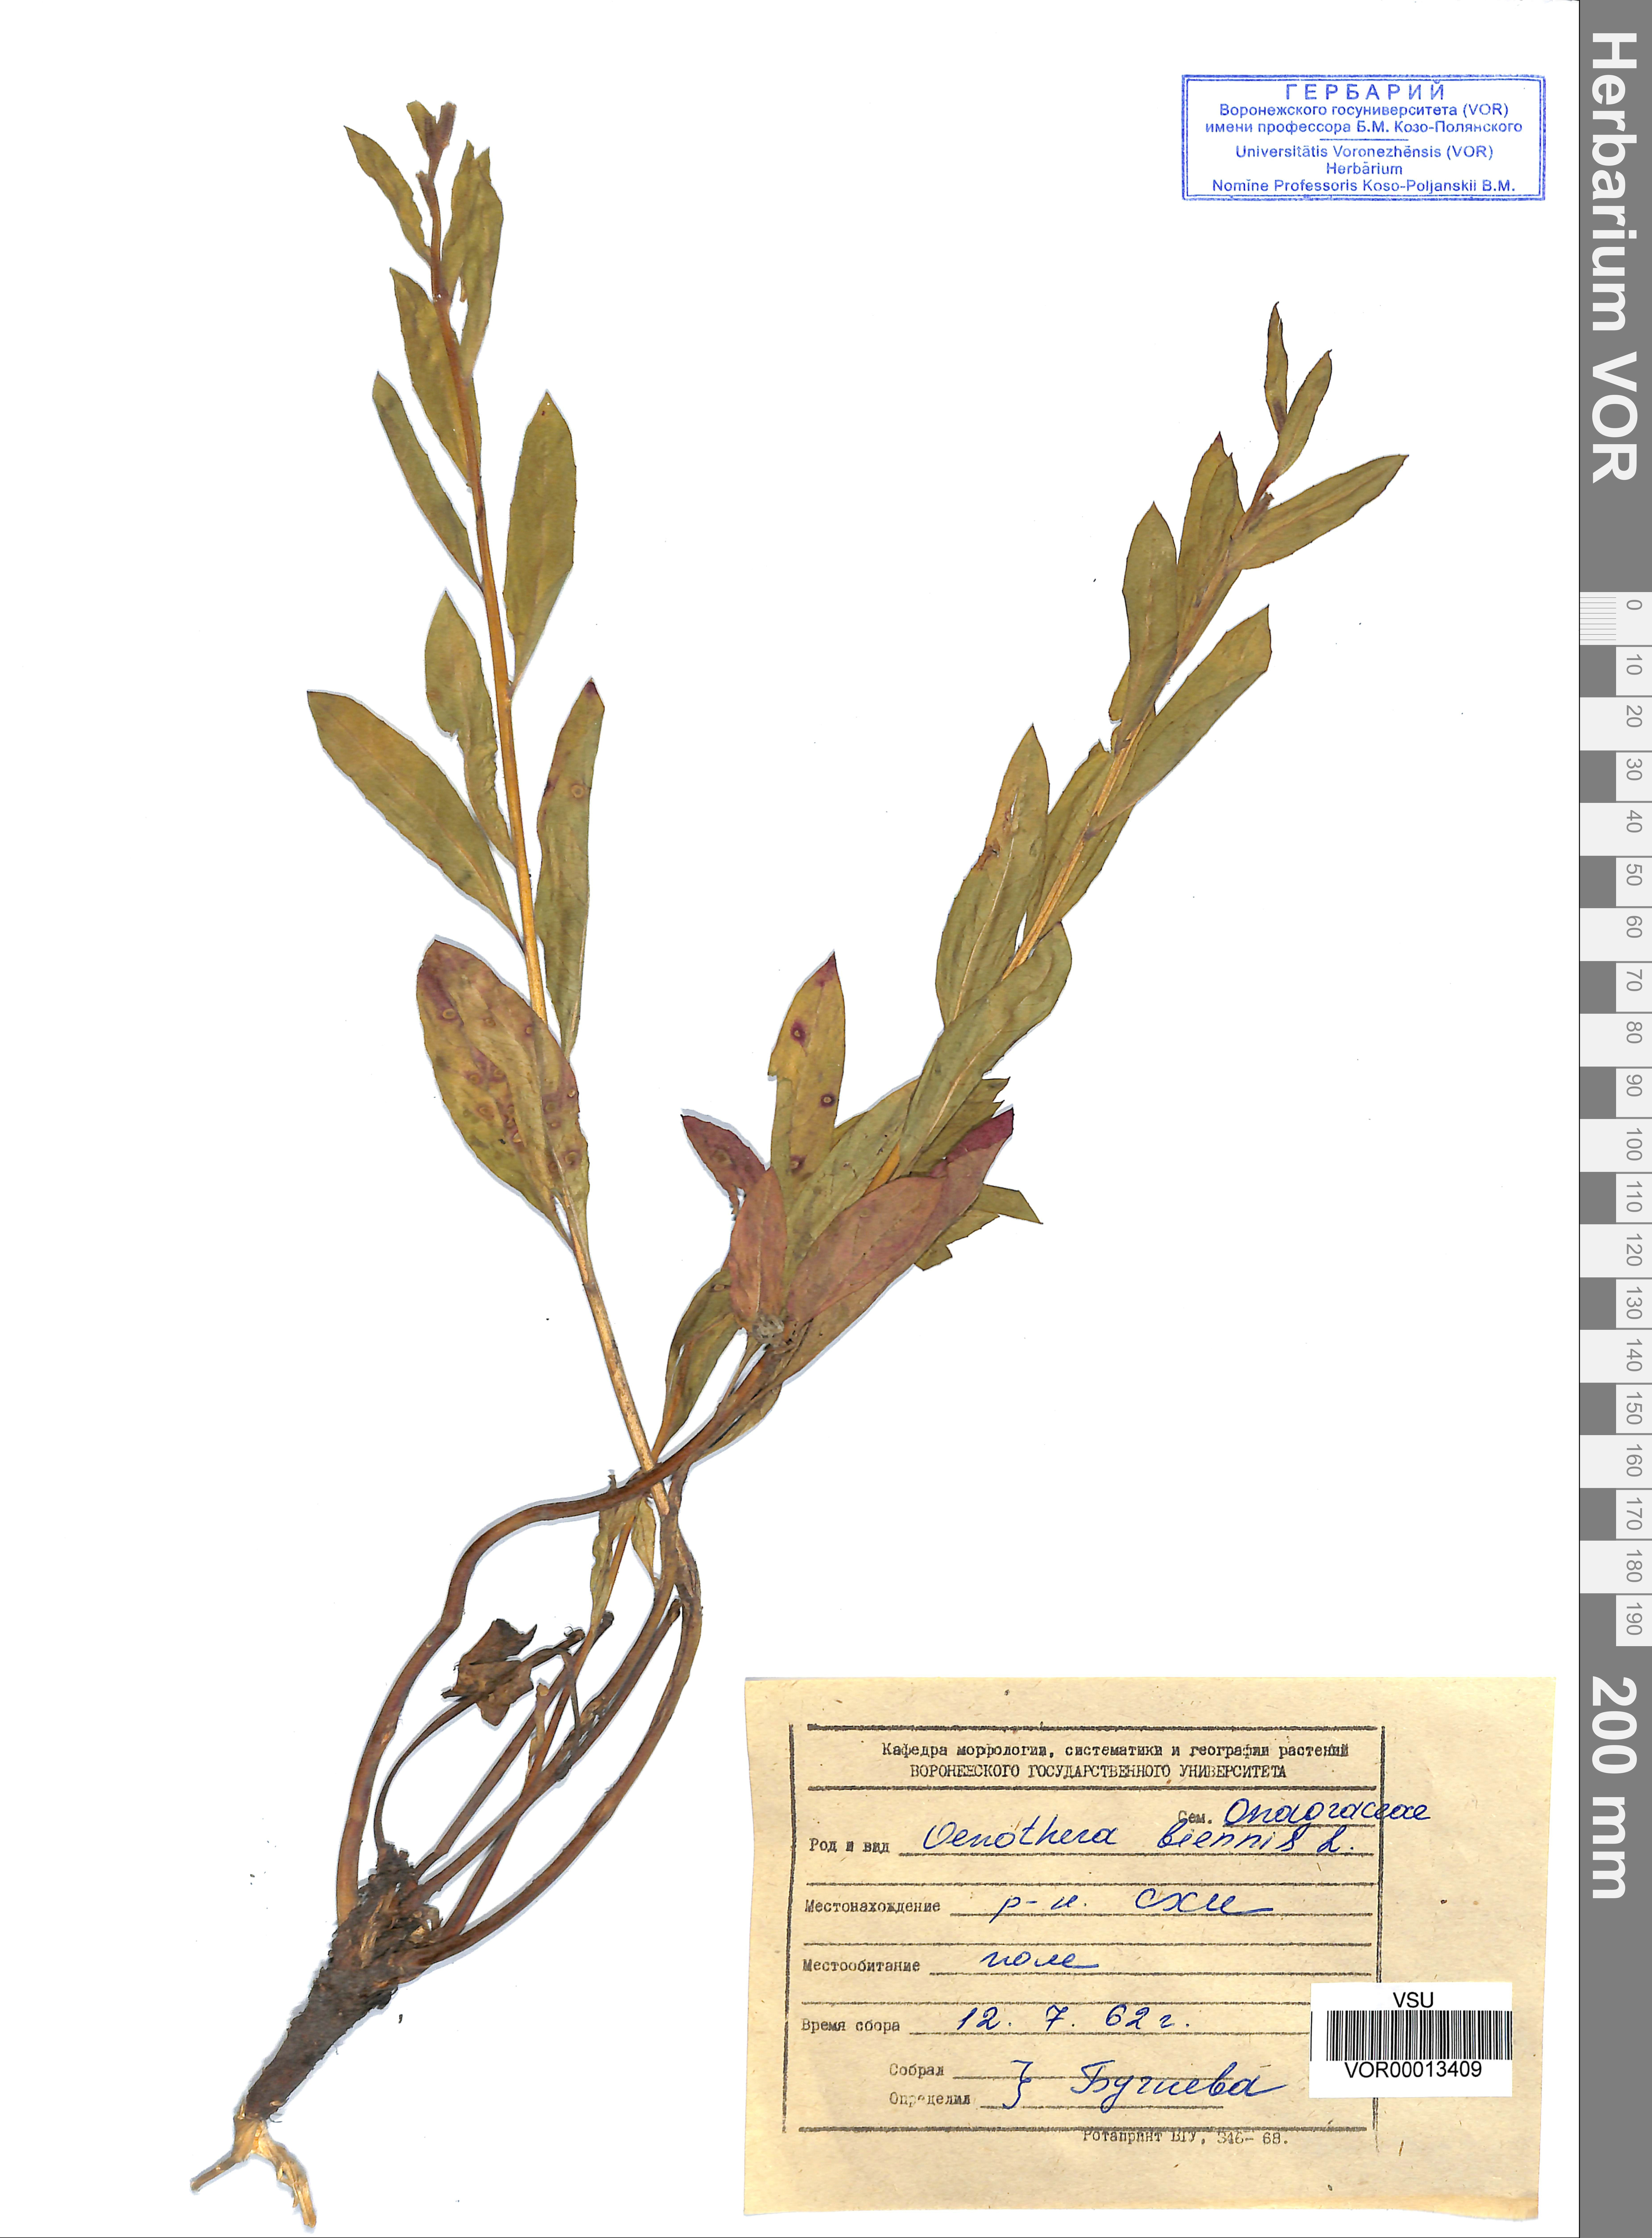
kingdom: Plantae
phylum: Tracheophyta
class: Magnoliopsida
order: Myrtales
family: Onagraceae
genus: Oenothera
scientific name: Oenothera biennis
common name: Common evening-primrose
